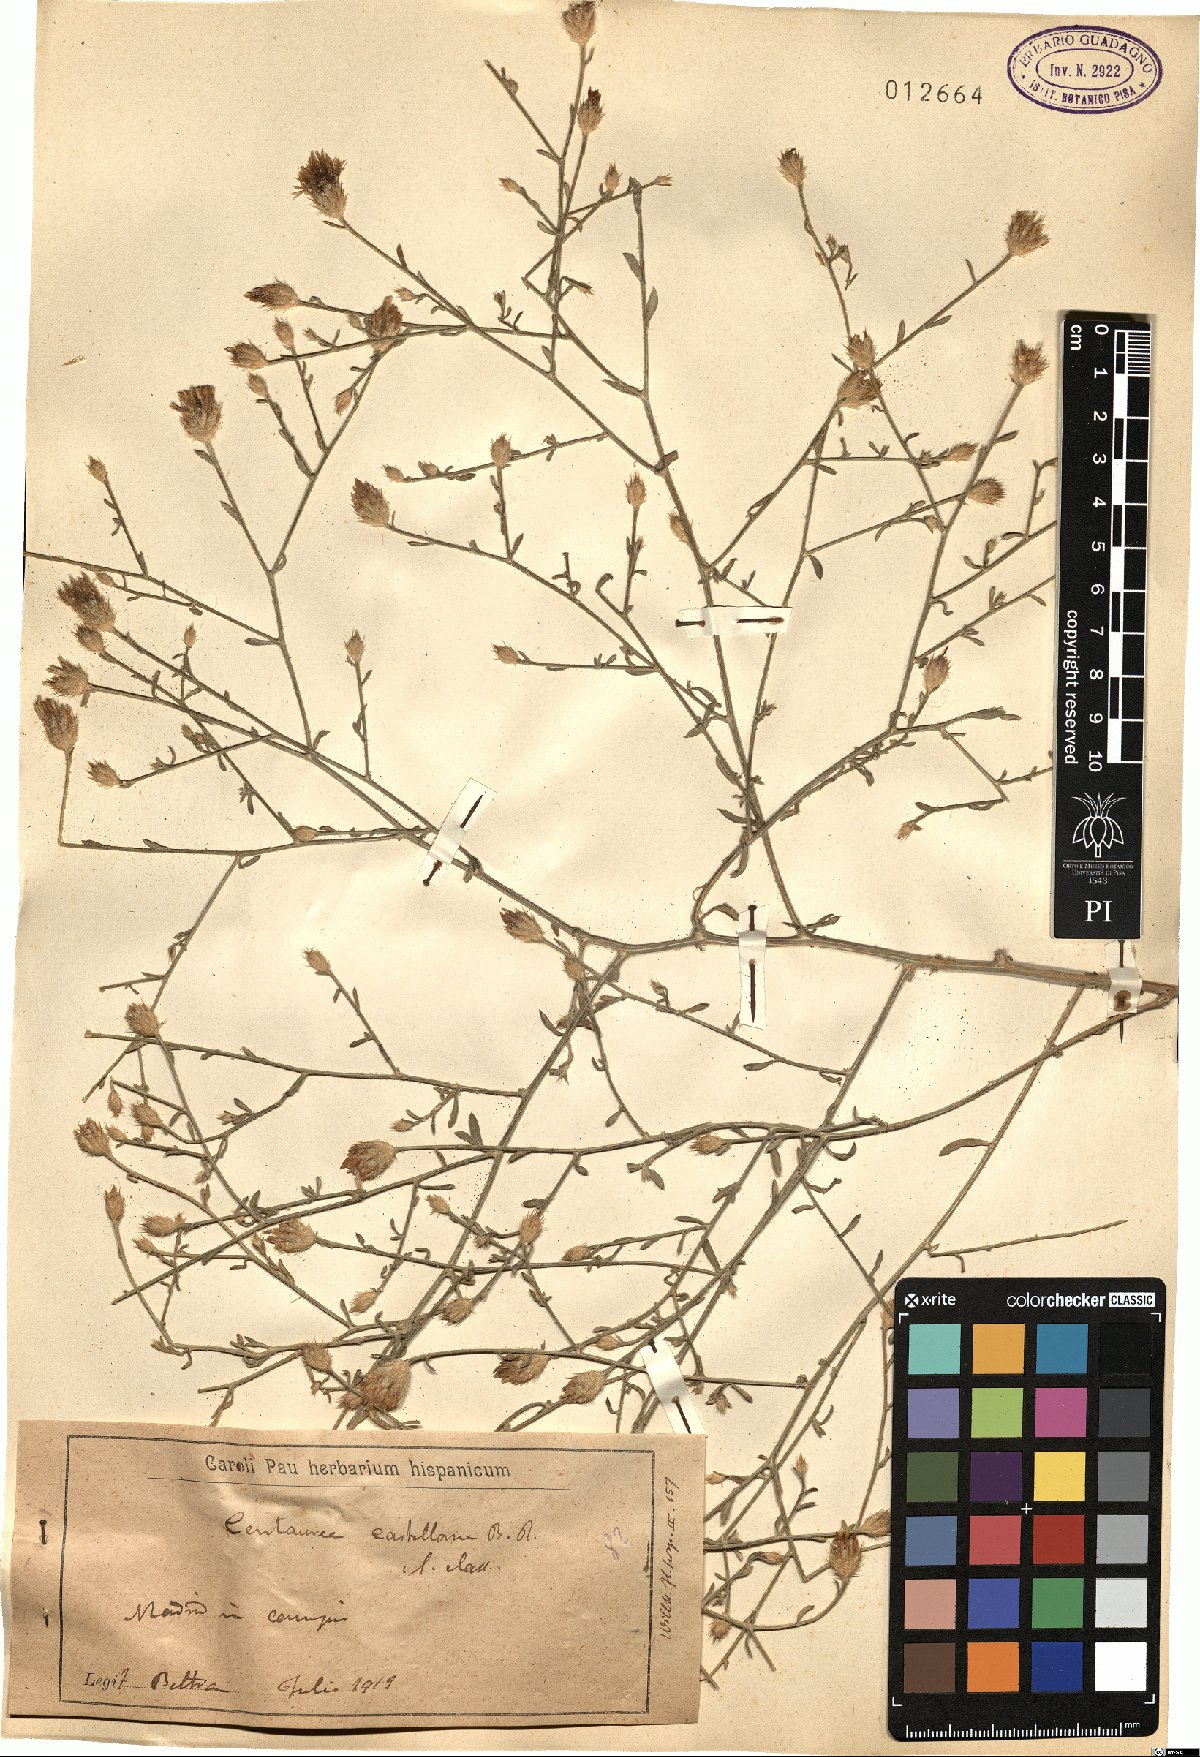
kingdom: Plantae
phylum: Tracheophyta
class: Magnoliopsida
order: Asterales
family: Asteraceae
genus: Centaurea
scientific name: Centaurea aristata
